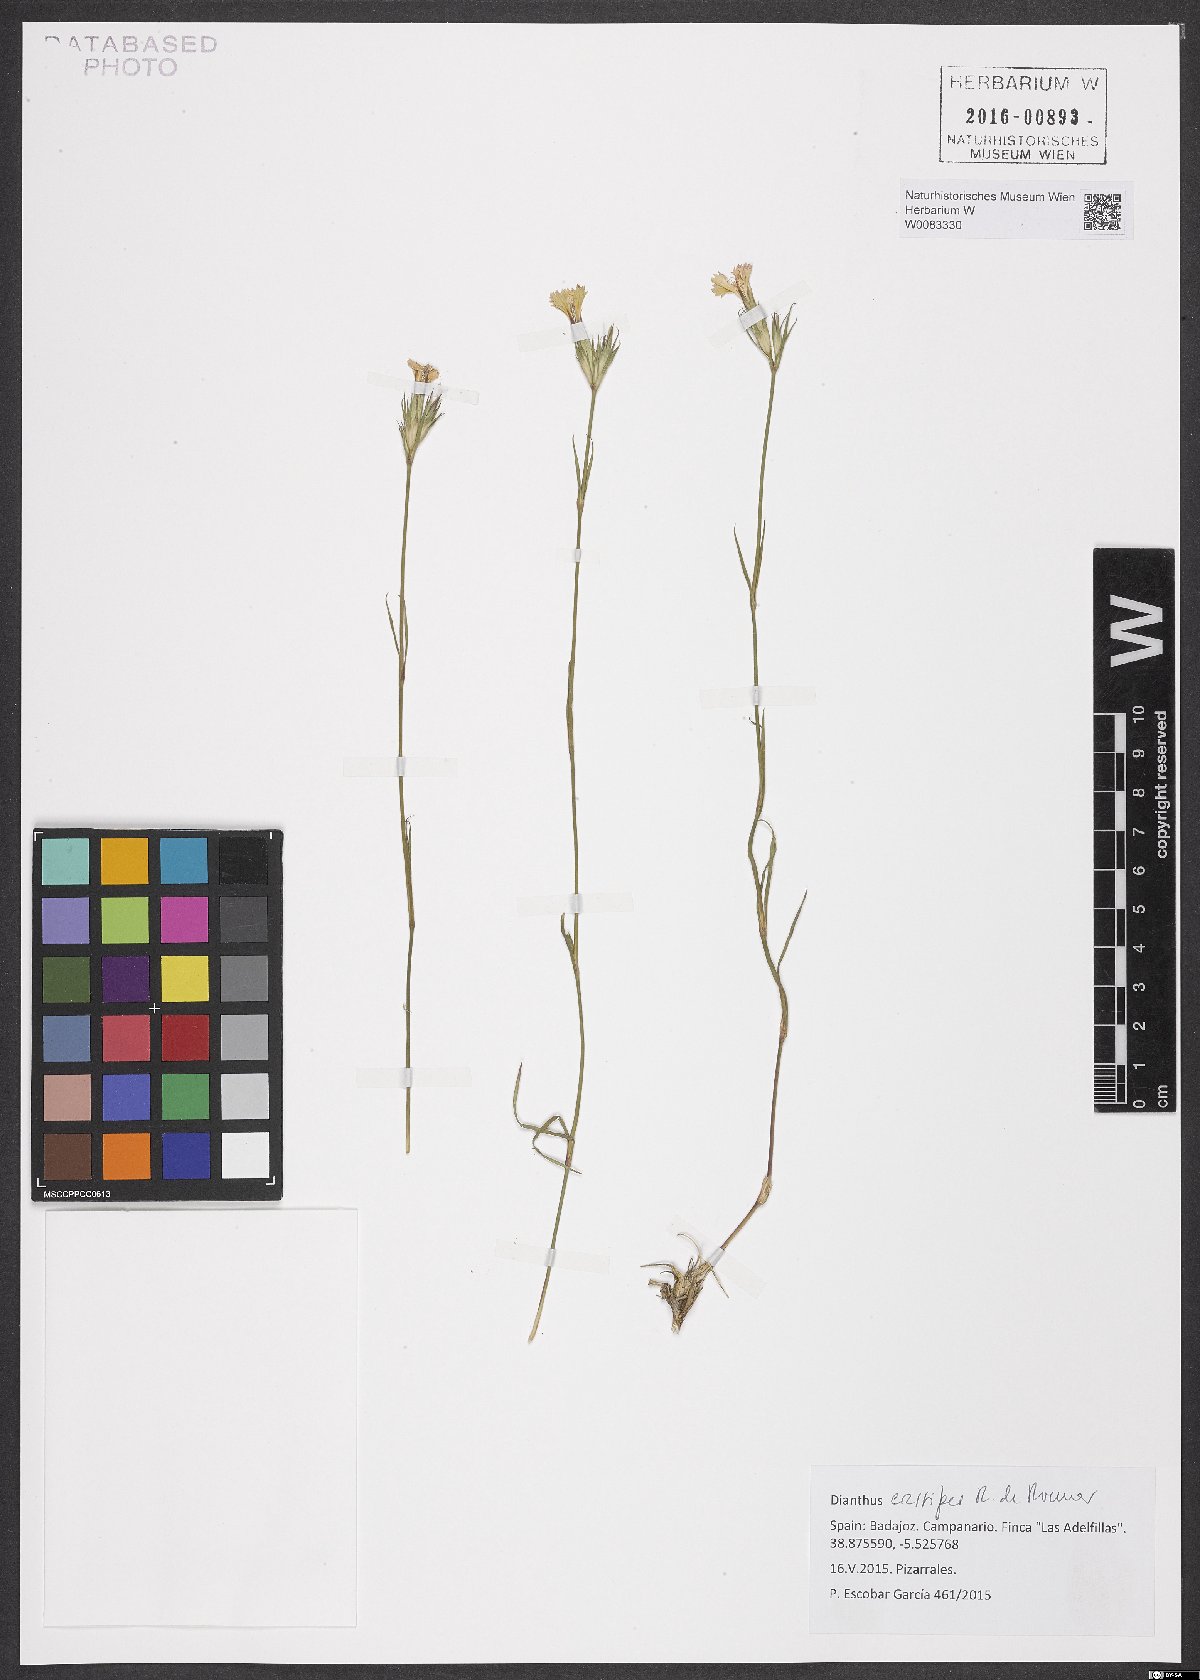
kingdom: Plantae
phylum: Tracheophyta
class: Magnoliopsida
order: Caryophyllales
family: Caryophyllaceae
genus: Dianthus
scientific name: Dianthus crassipes
